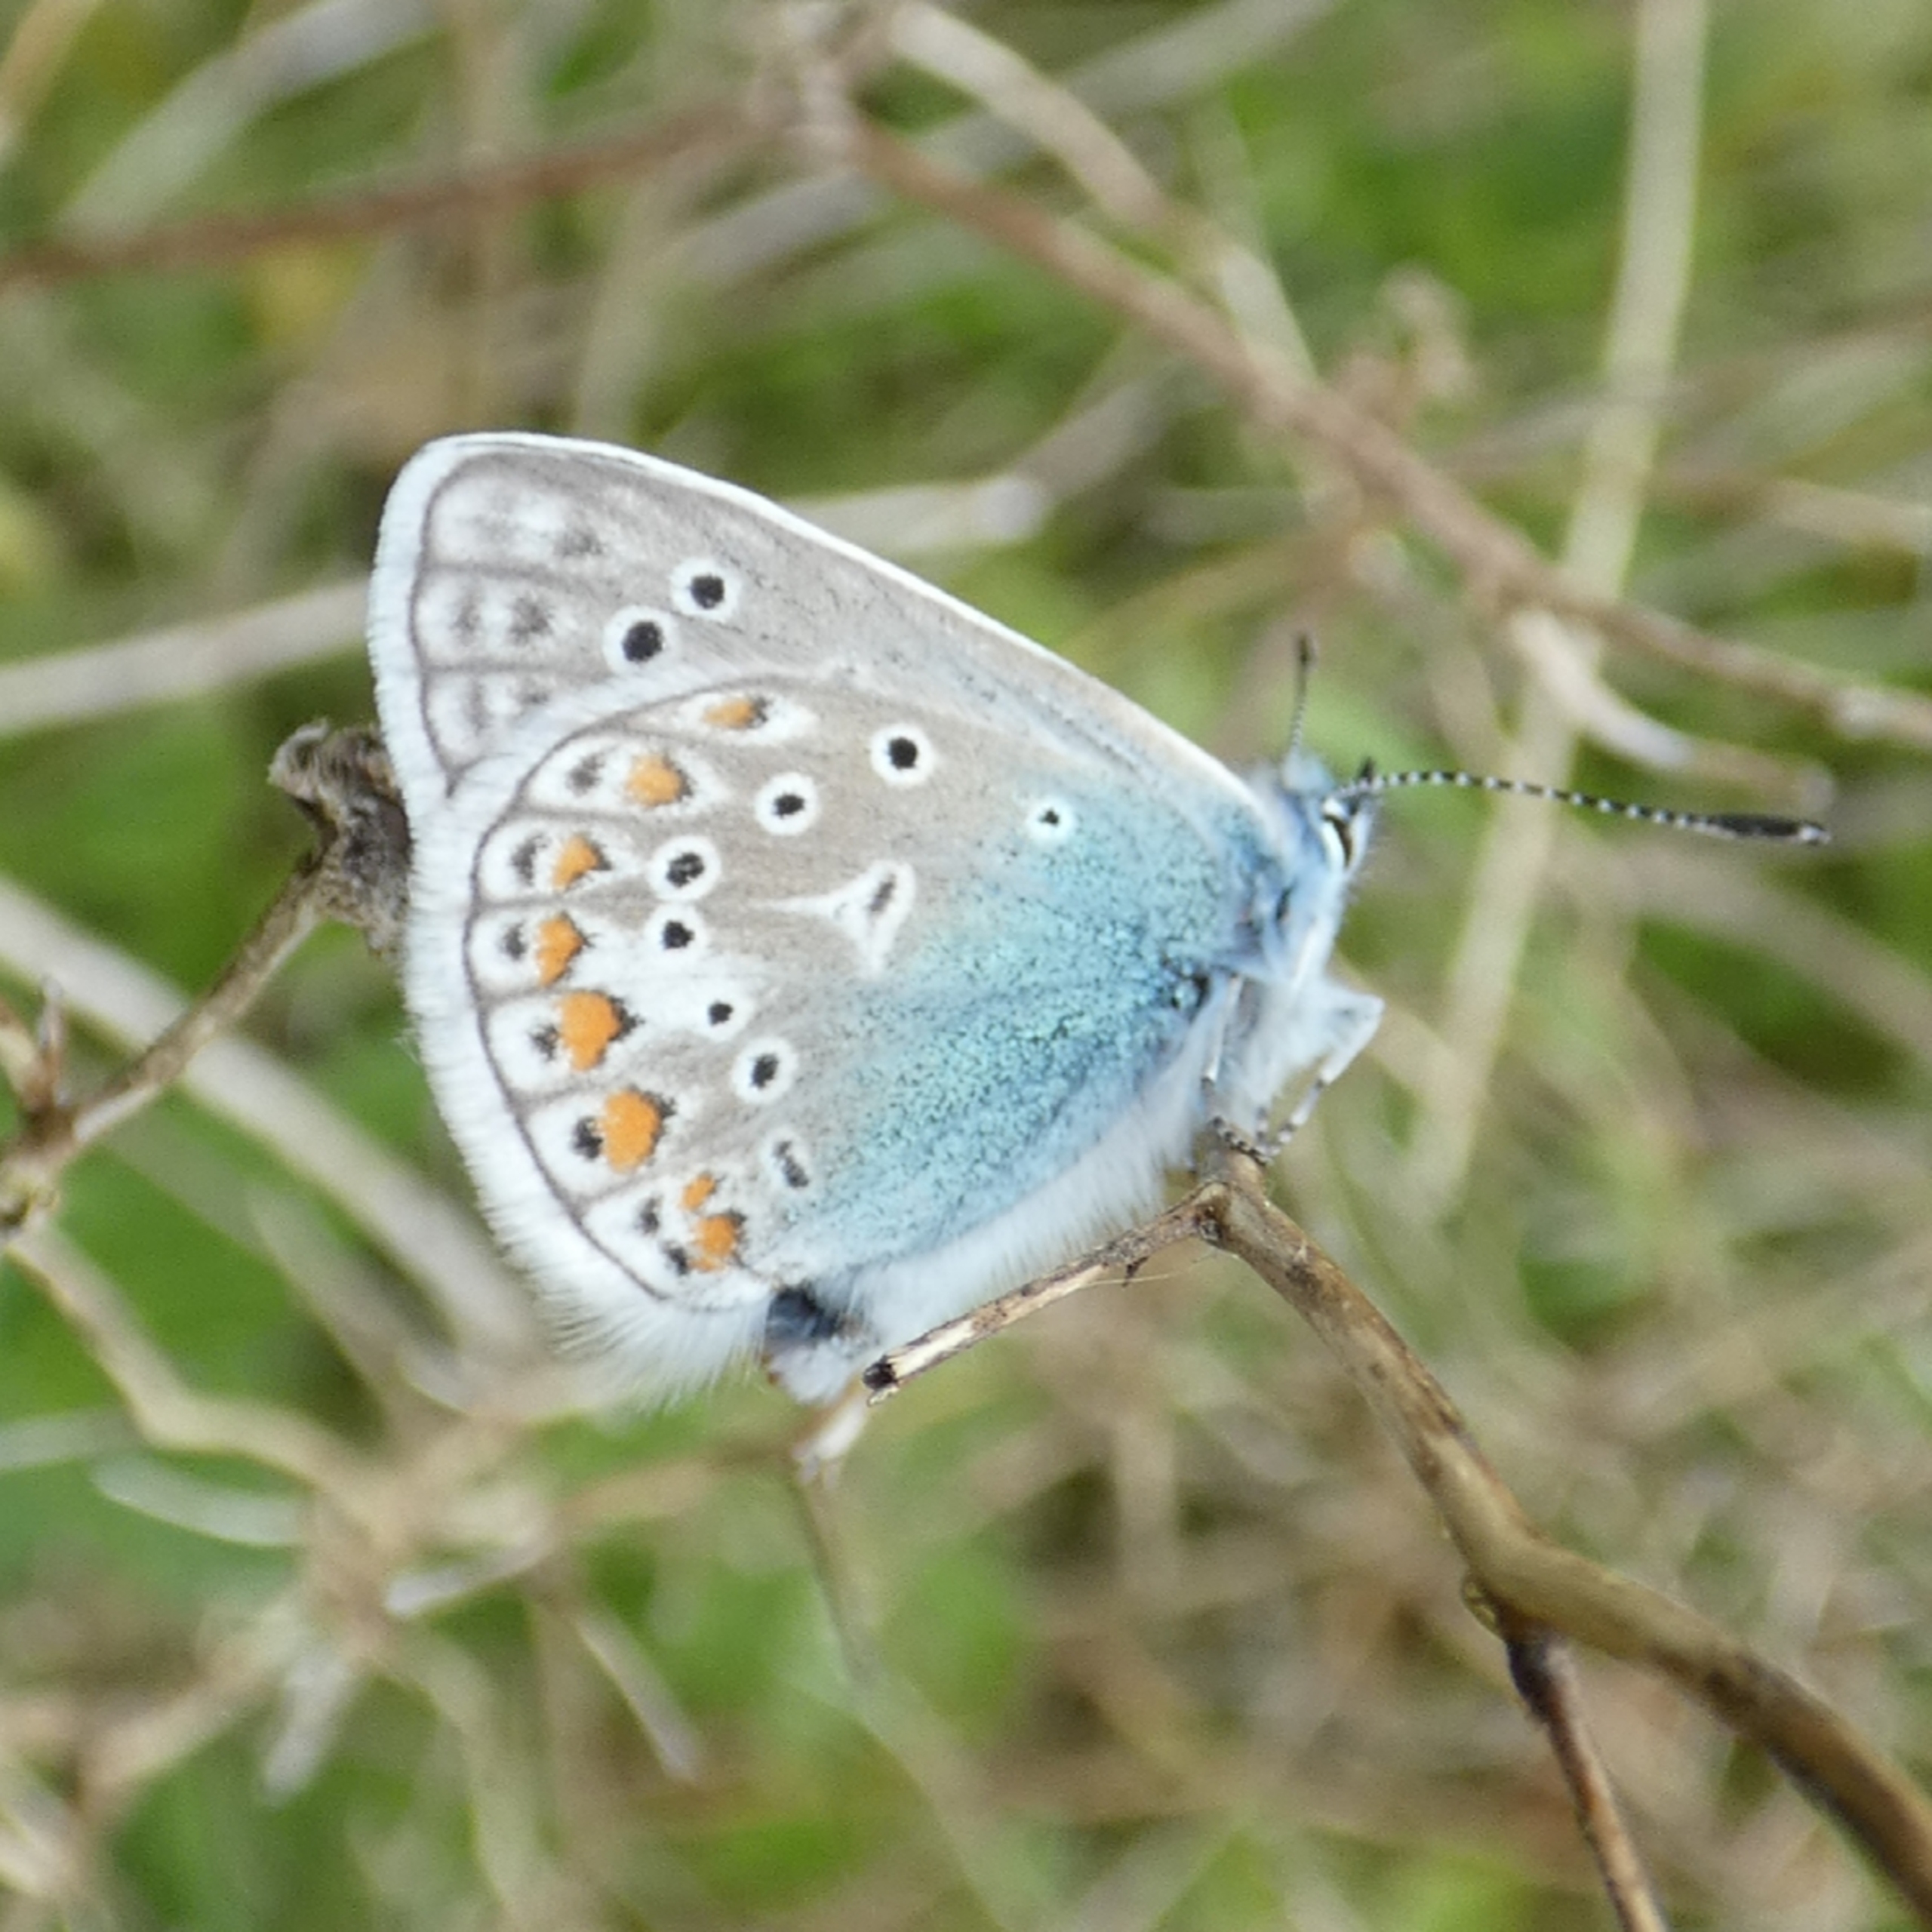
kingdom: Animalia
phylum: Arthropoda
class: Insecta
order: Lepidoptera
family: Lycaenidae
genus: Polyommatus
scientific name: Polyommatus icarus
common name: Almindelig blåfugl
